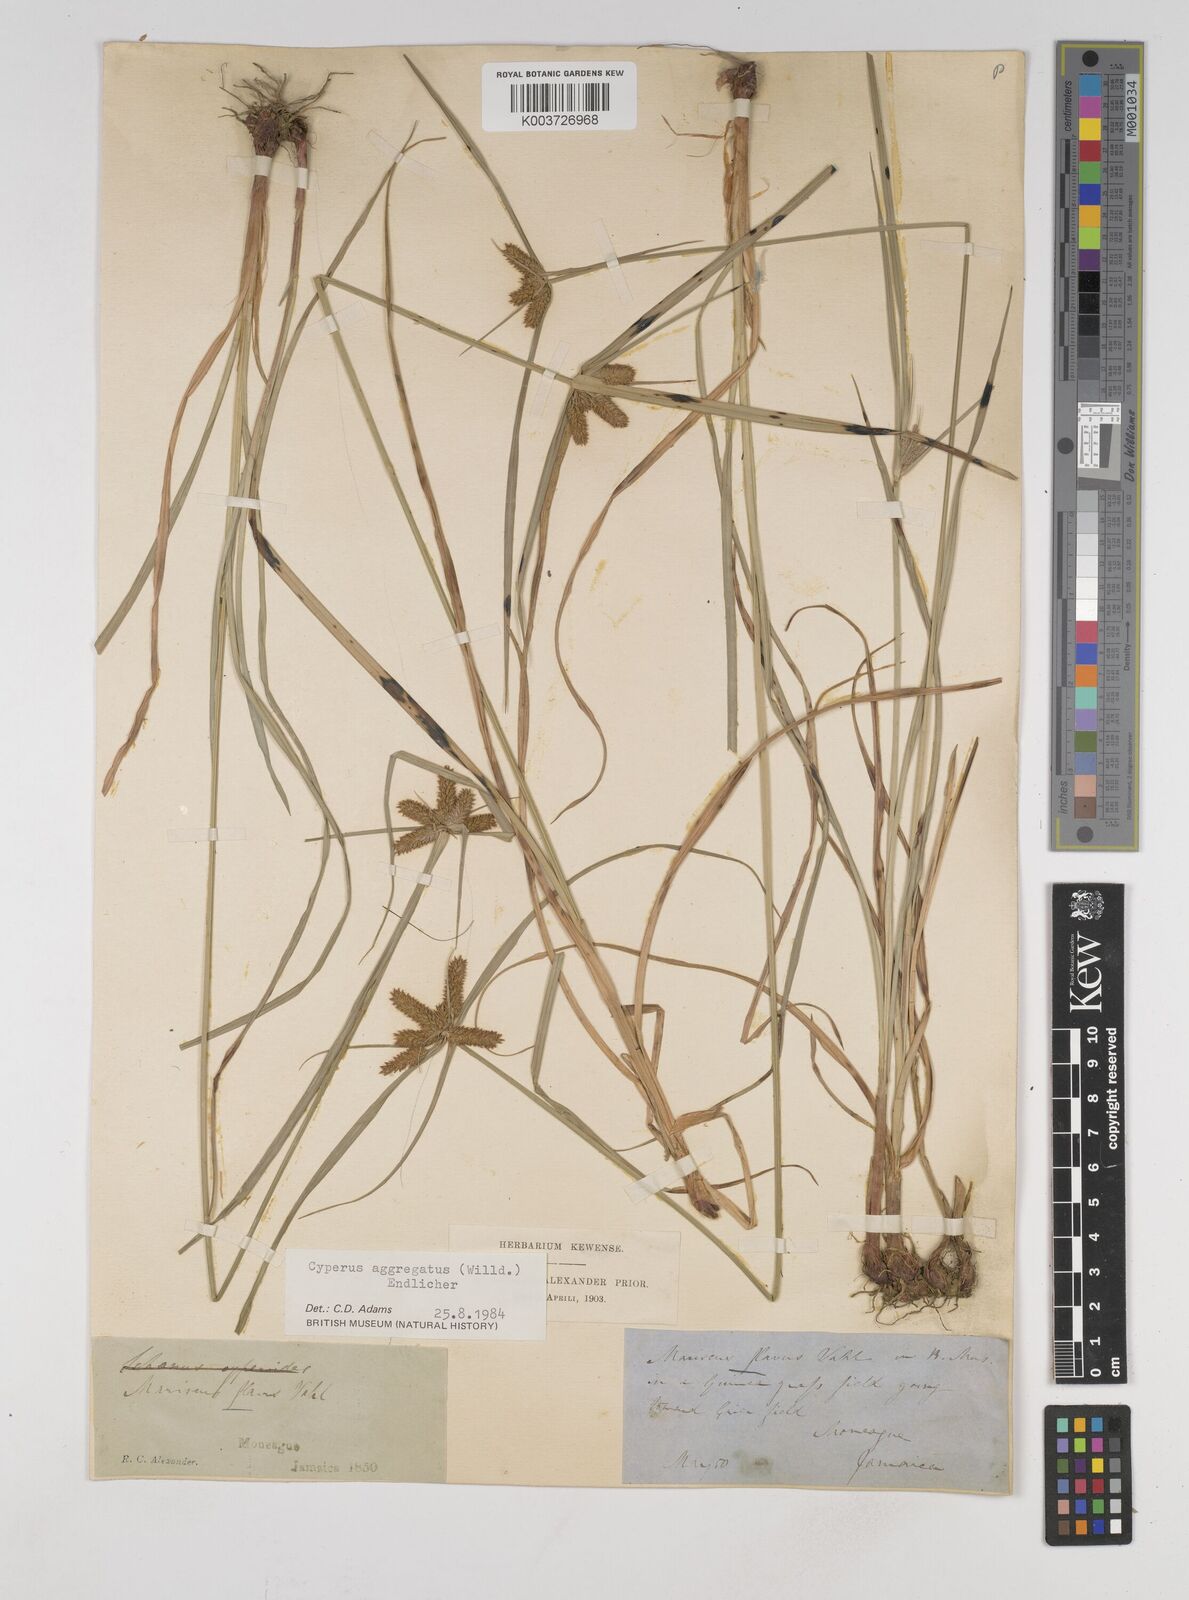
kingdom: Plantae
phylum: Tracheophyta
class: Liliopsida
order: Poales
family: Cyperaceae
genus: Cyperus
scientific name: Cyperus aggregatus
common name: Inflatedscale flatsedge
